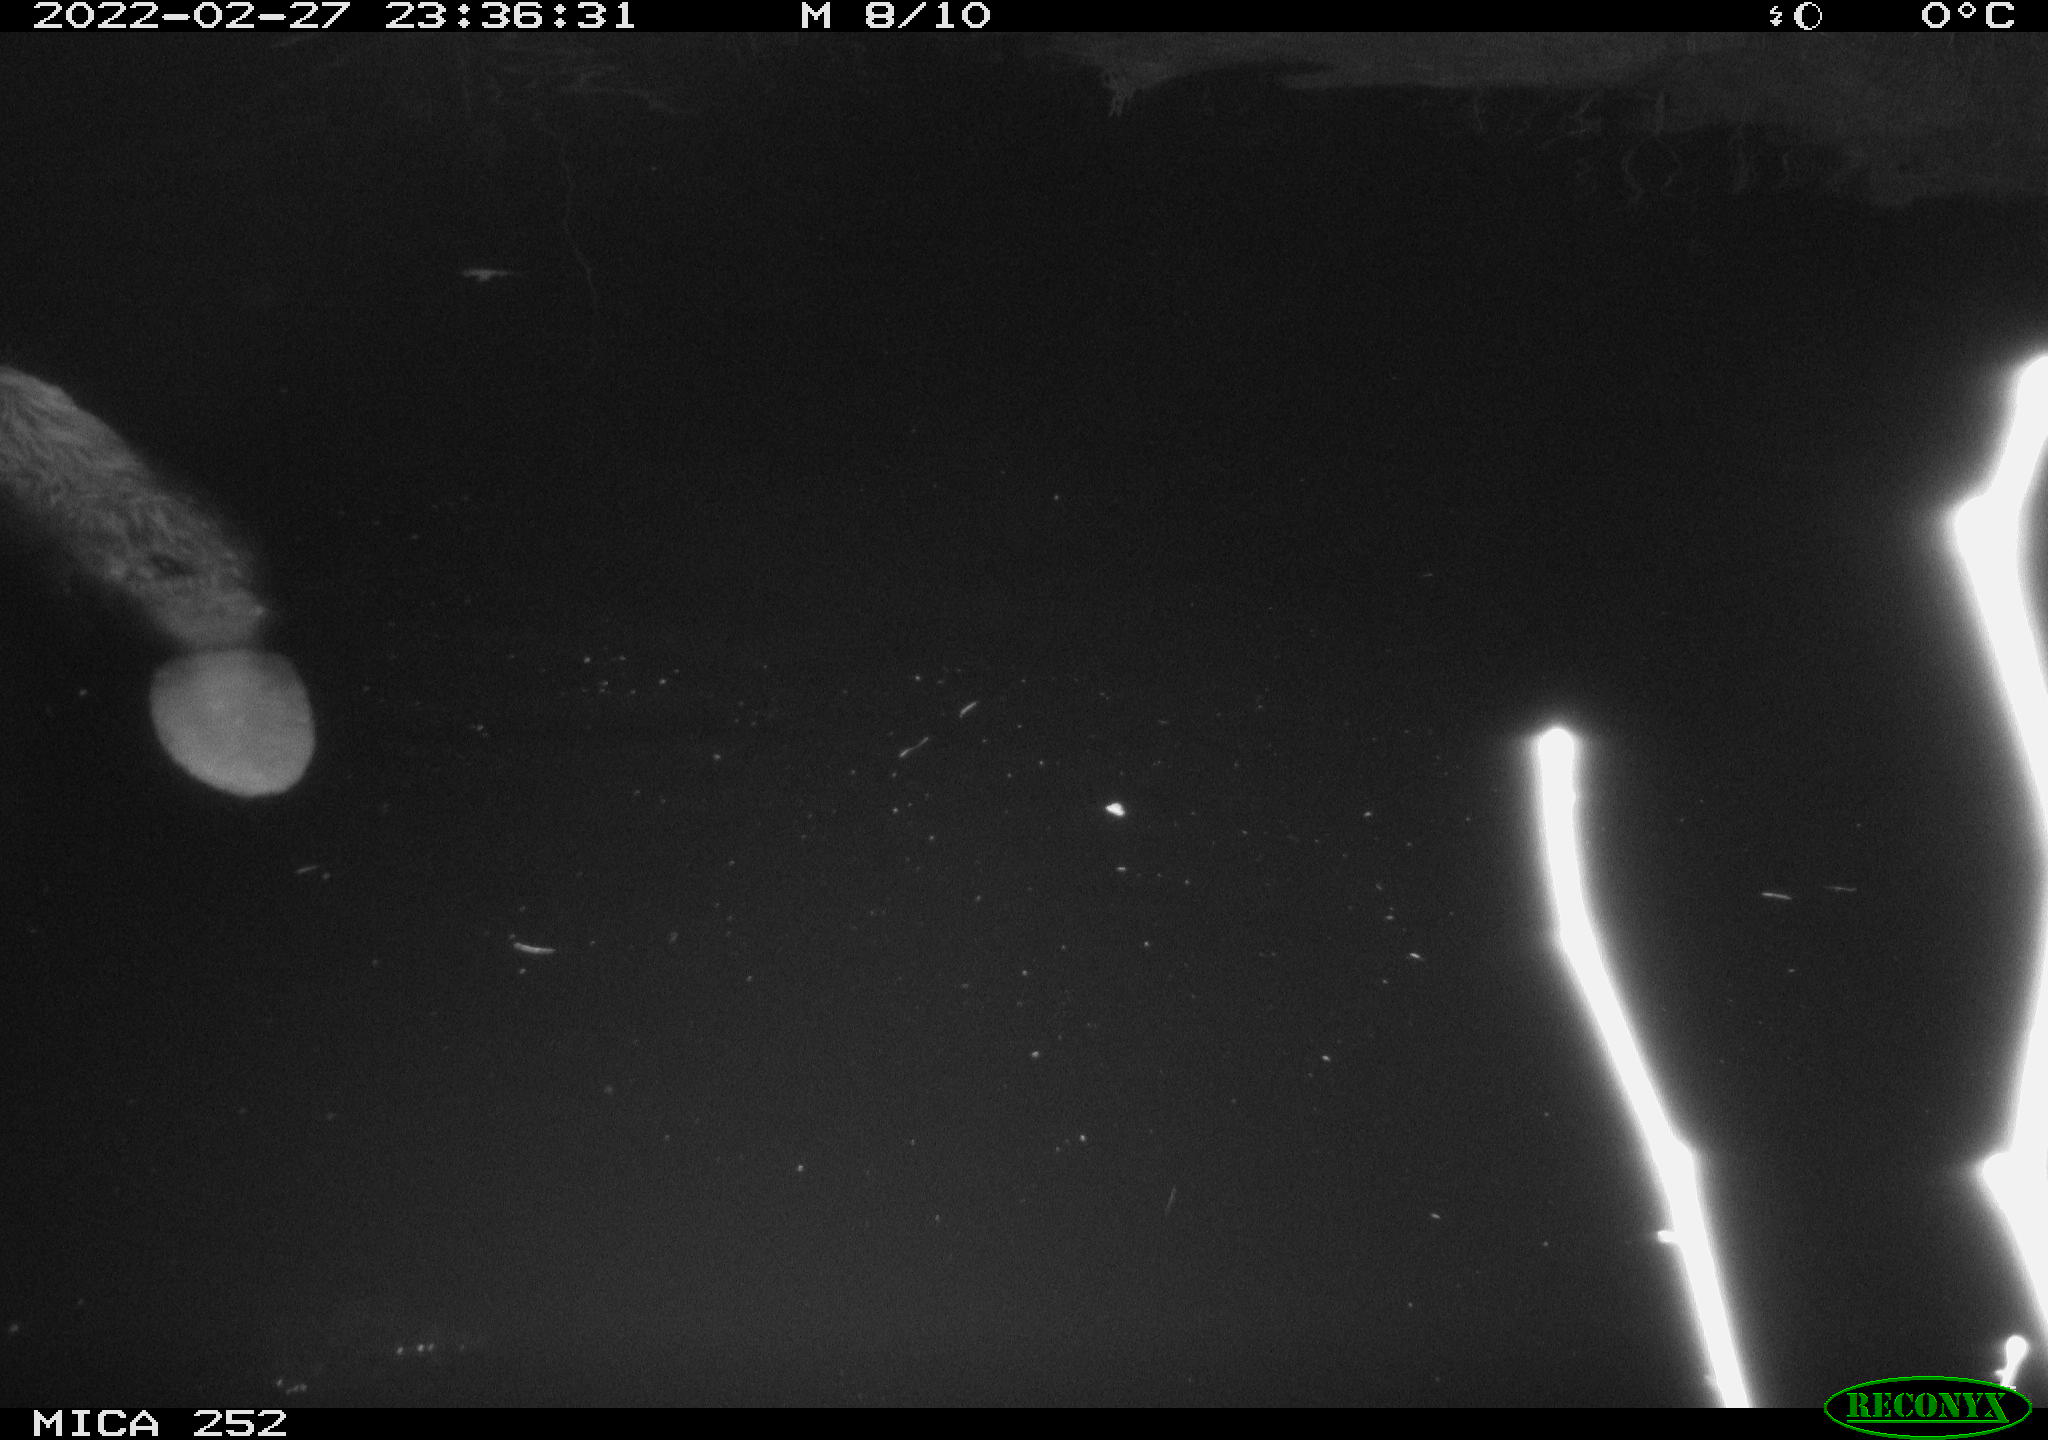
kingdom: Animalia
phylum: Chordata
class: Mammalia
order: Rodentia
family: Castoridae
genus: Castor
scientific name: Castor fiber
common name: Eurasian beaver
